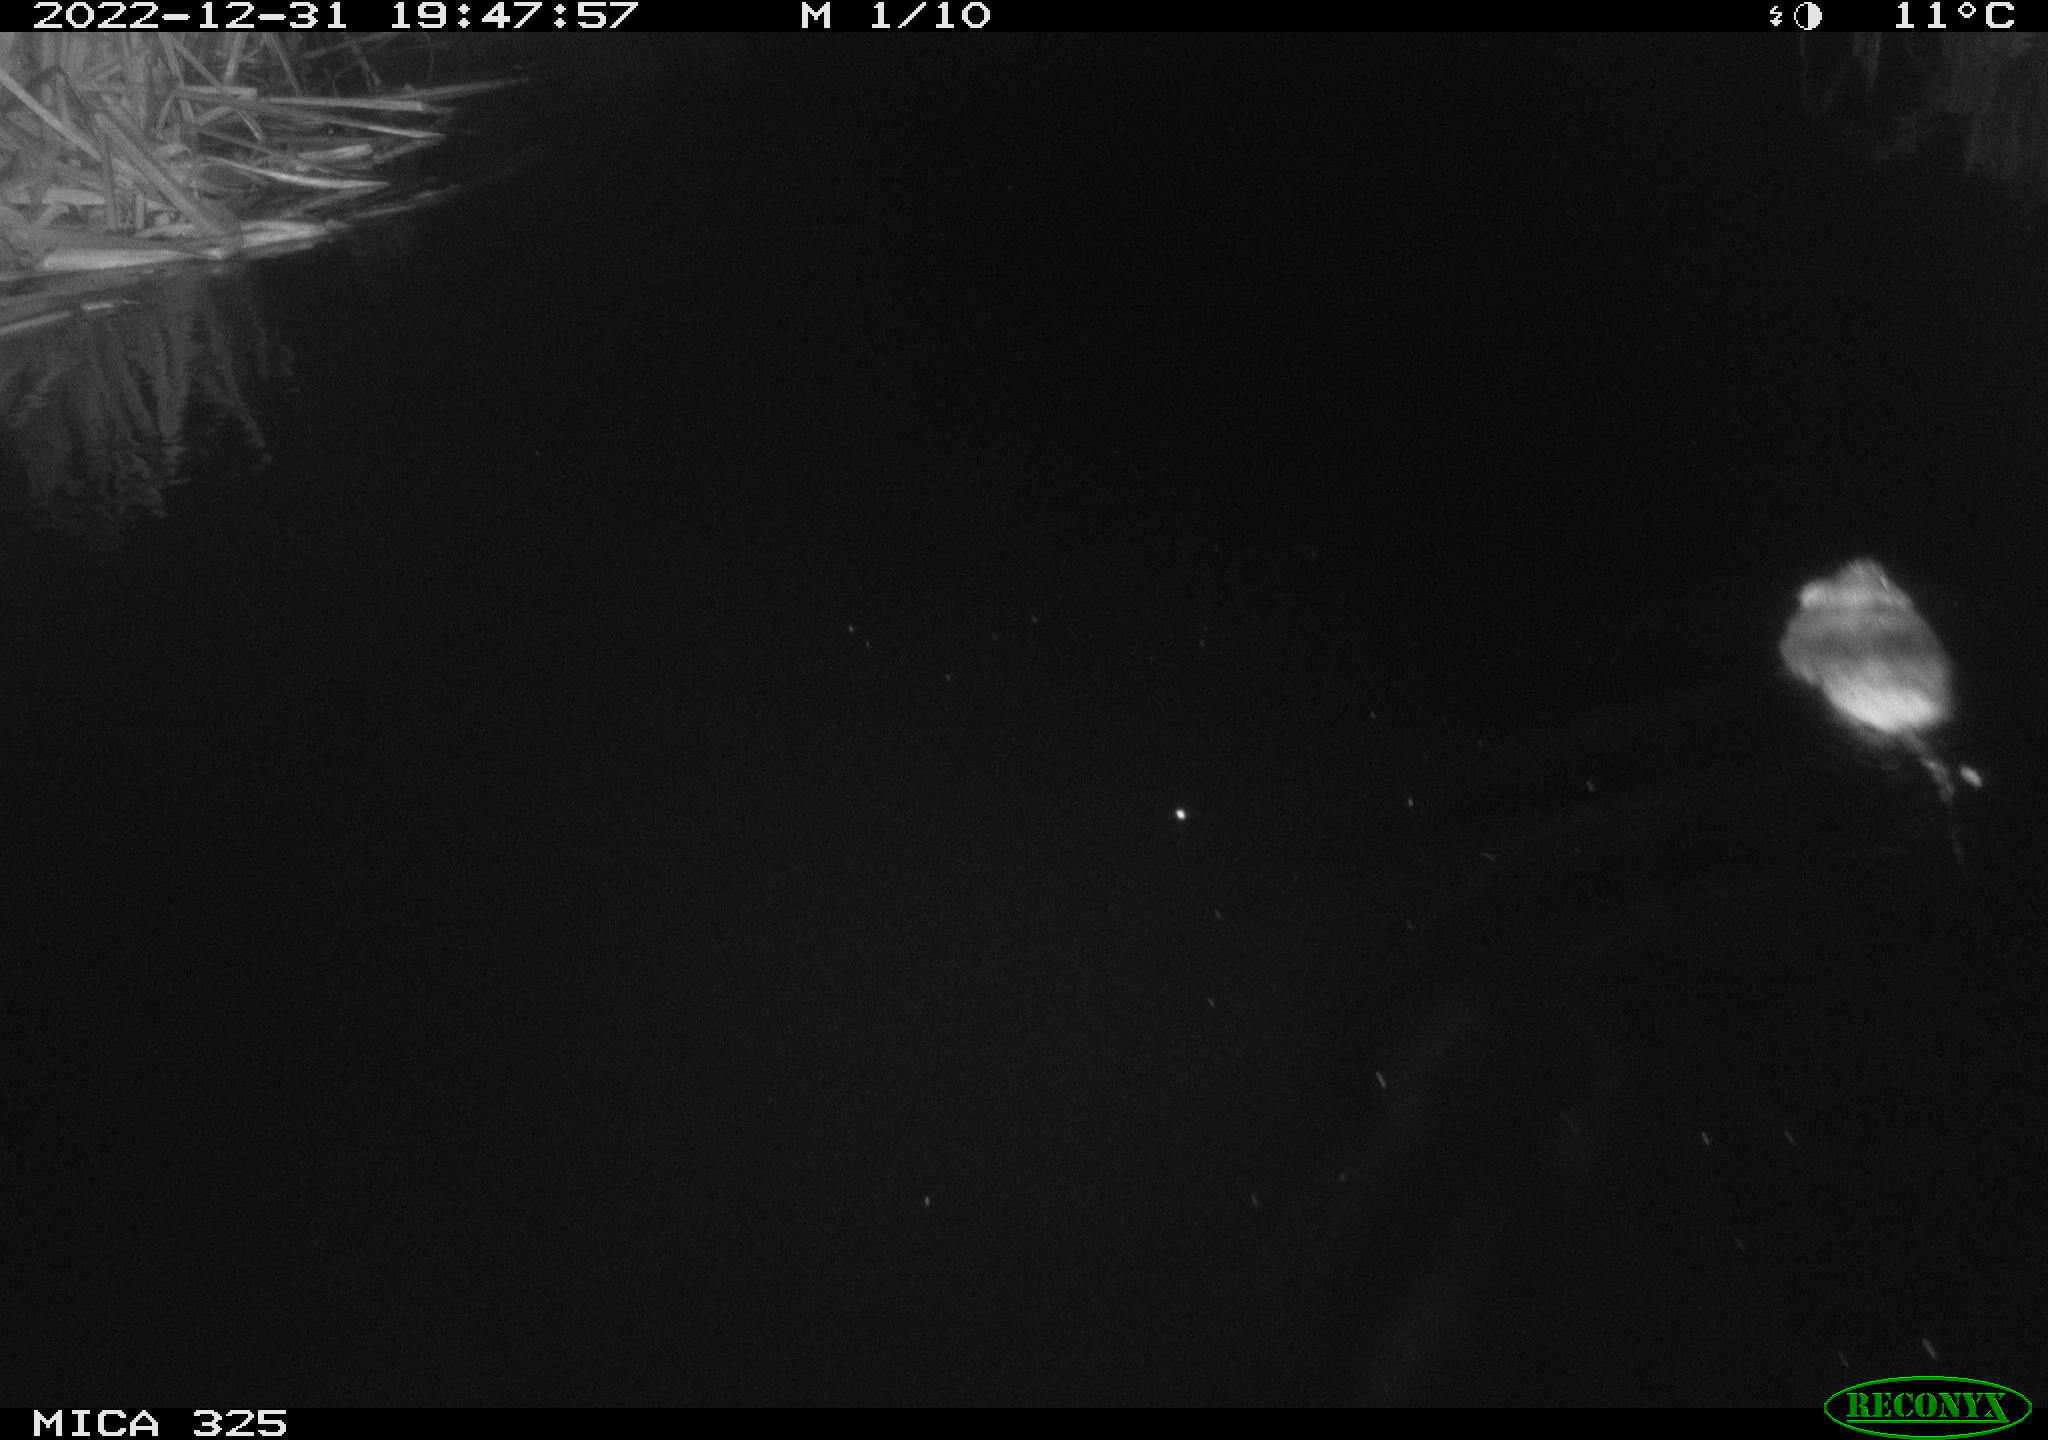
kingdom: Animalia
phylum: Chordata
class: Mammalia
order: Rodentia
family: Cricetidae
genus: Ondatra
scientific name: Ondatra zibethicus
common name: Muskrat
